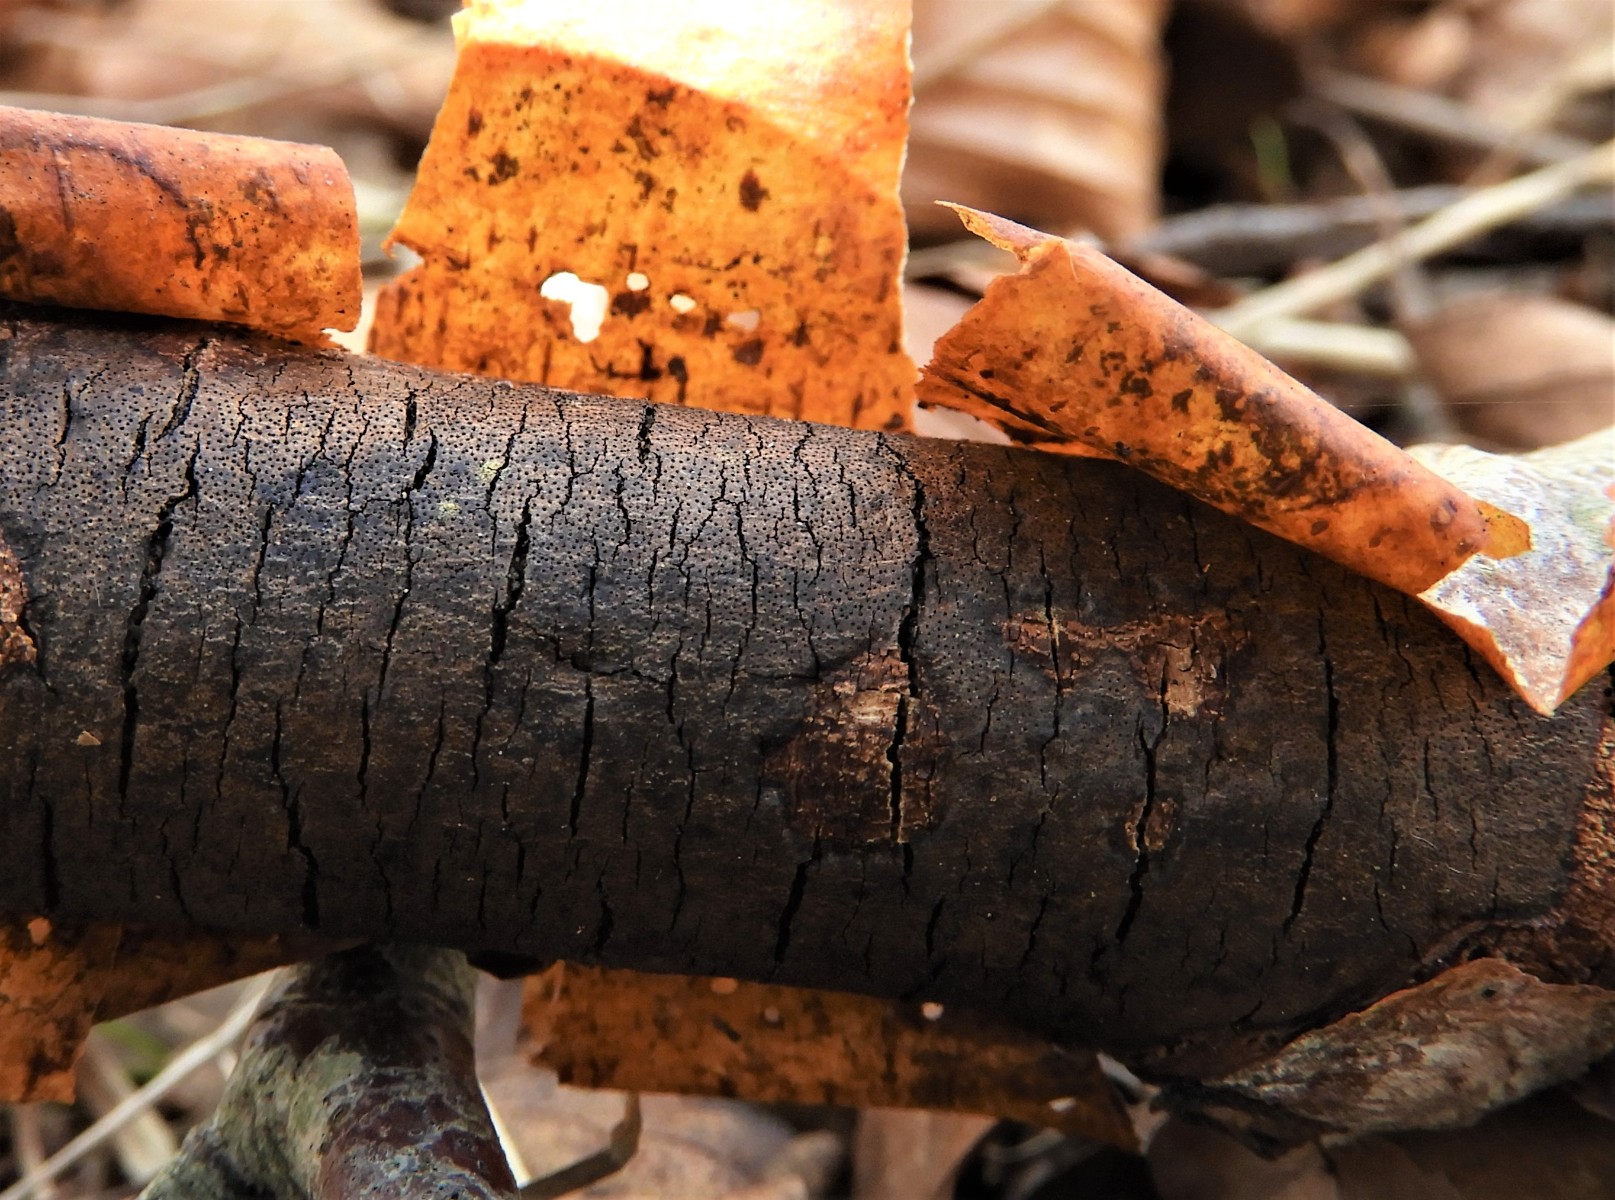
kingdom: Fungi
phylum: Ascomycota
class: Sordariomycetes
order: Xylariales
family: Diatrypaceae
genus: Diatrype
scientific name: Diatrype decorticata
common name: barksprænger-kulskorpe
